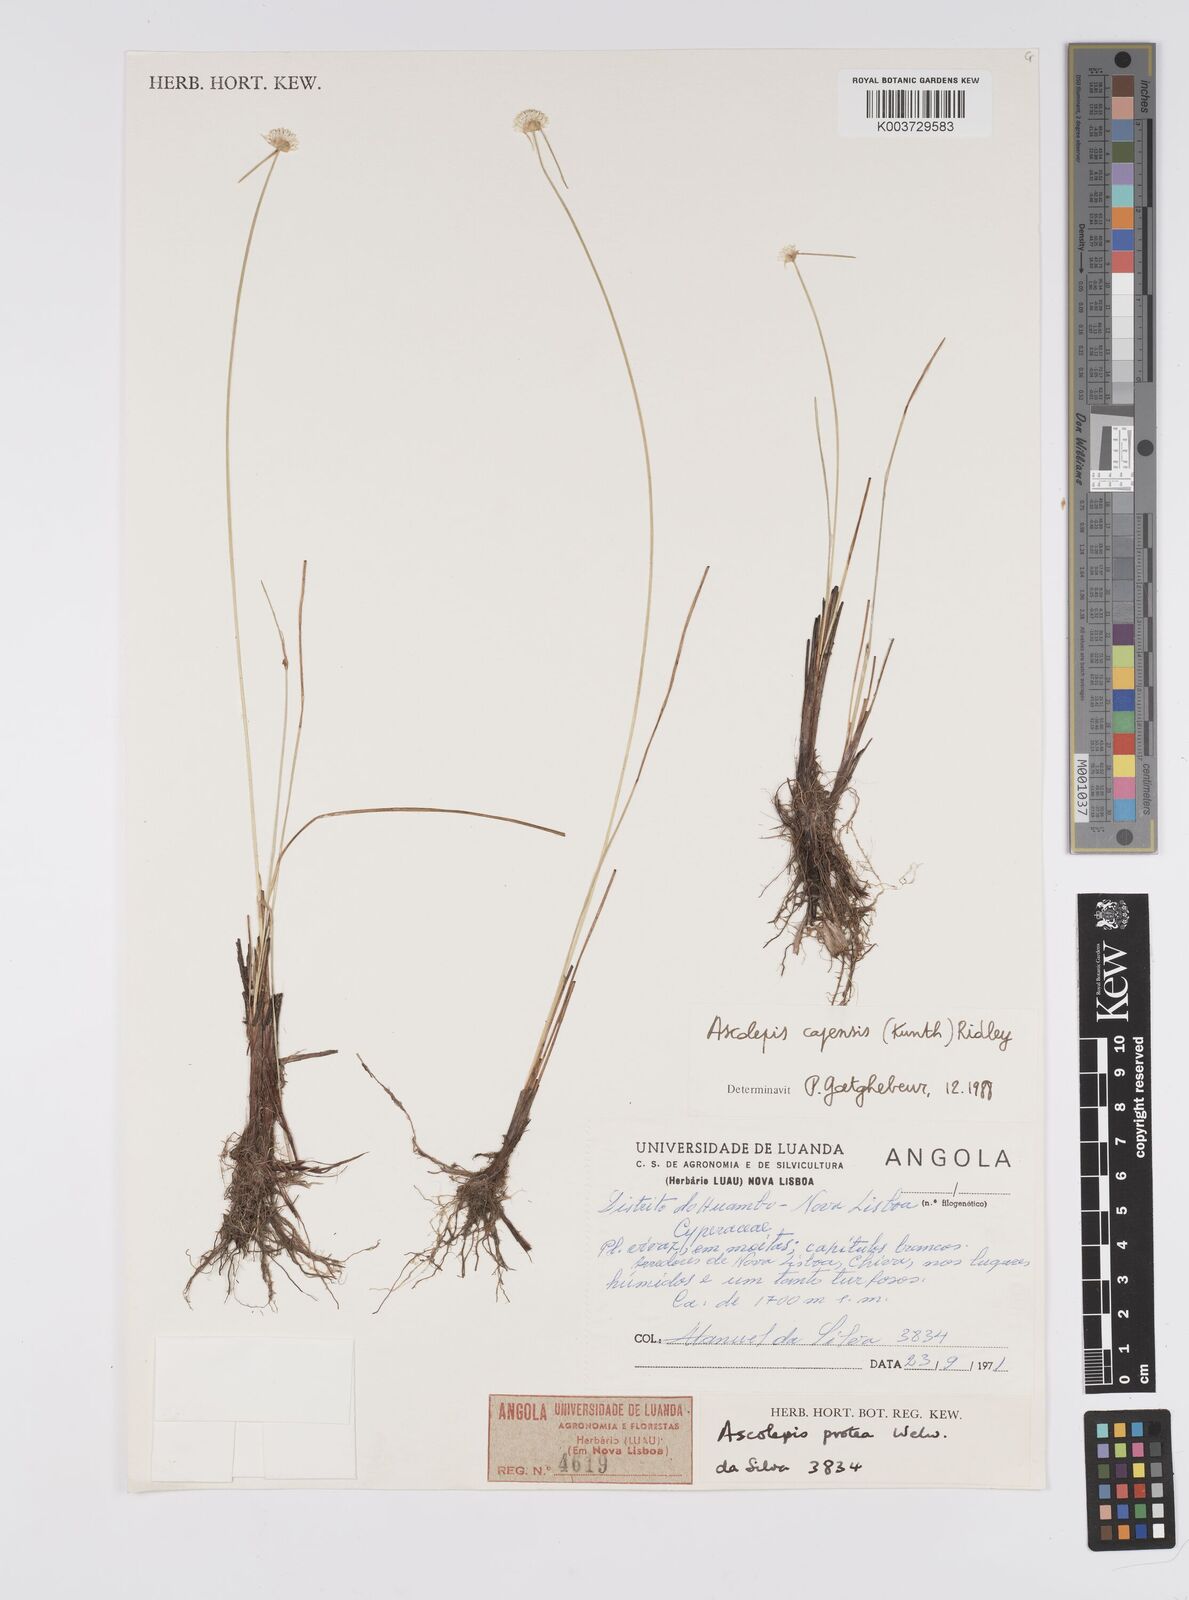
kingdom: Plantae
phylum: Tracheophyta
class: Liliopsida
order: Poales
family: Cyperaceae
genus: Cyperus
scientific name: Cyperus
